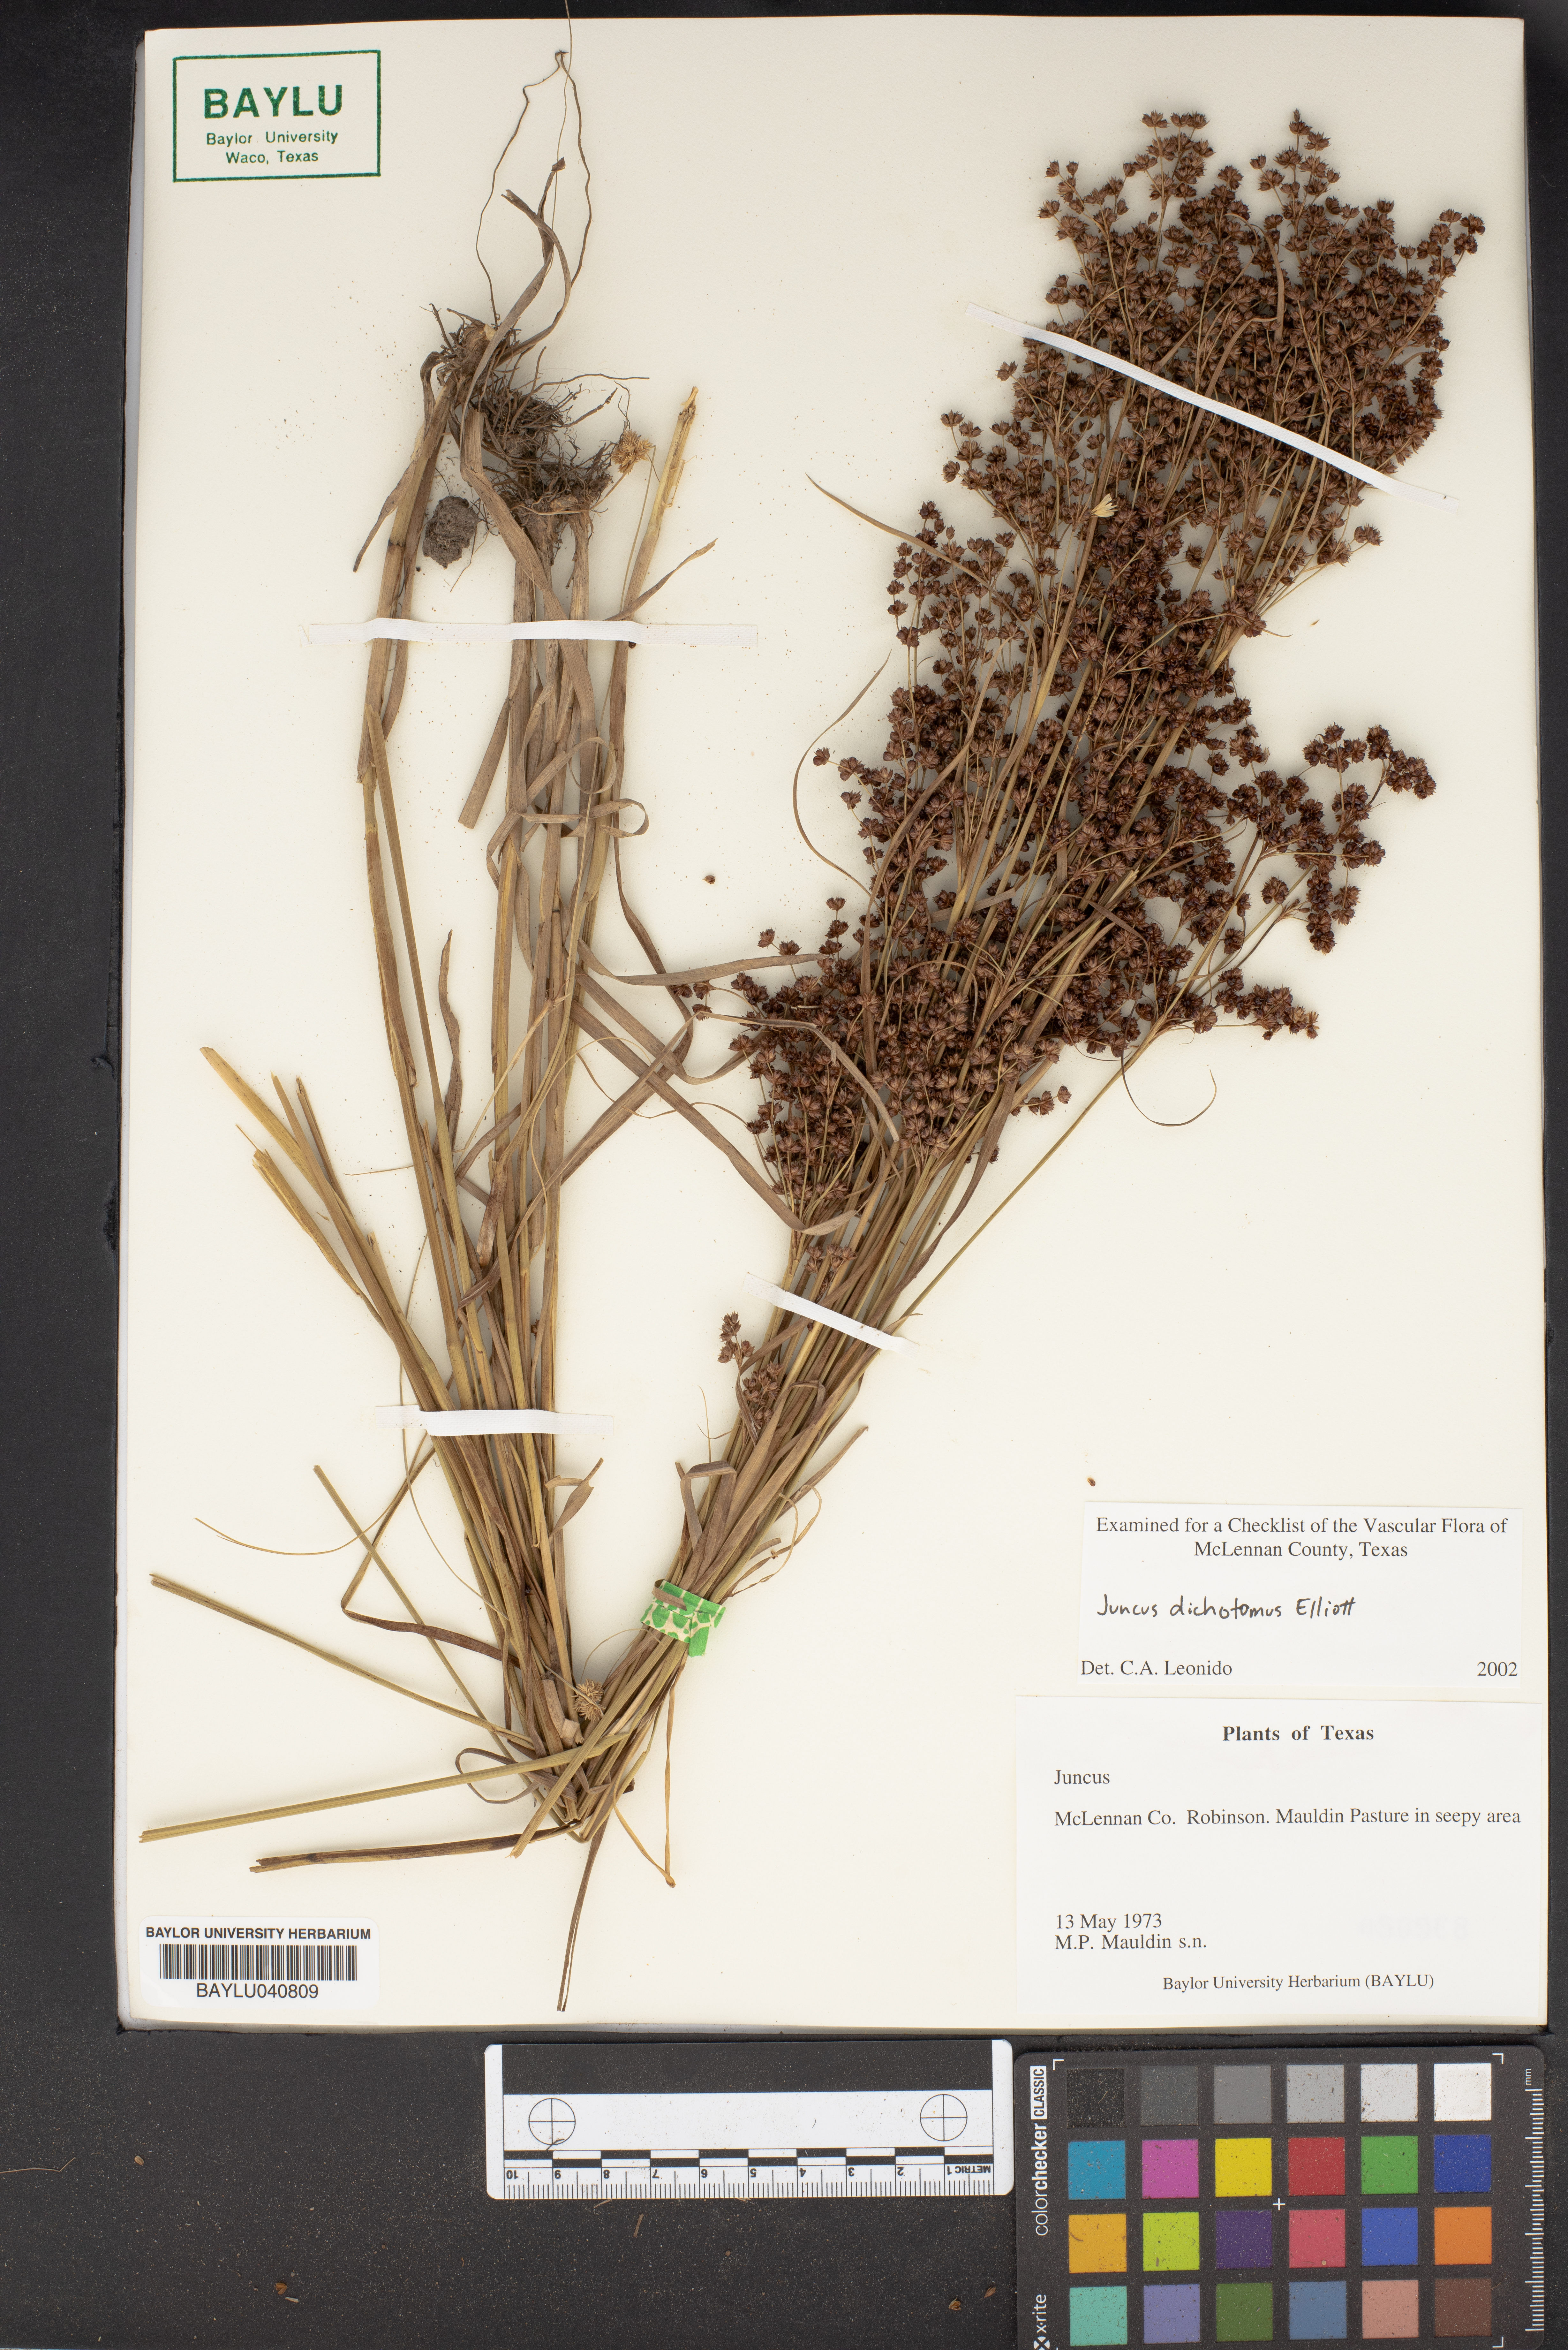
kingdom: Plantae
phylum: Tracheophyta
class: Liliopsida
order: Poales
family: Juncaceae
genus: Juncus
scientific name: Juncus dichotomus
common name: Forked rush
